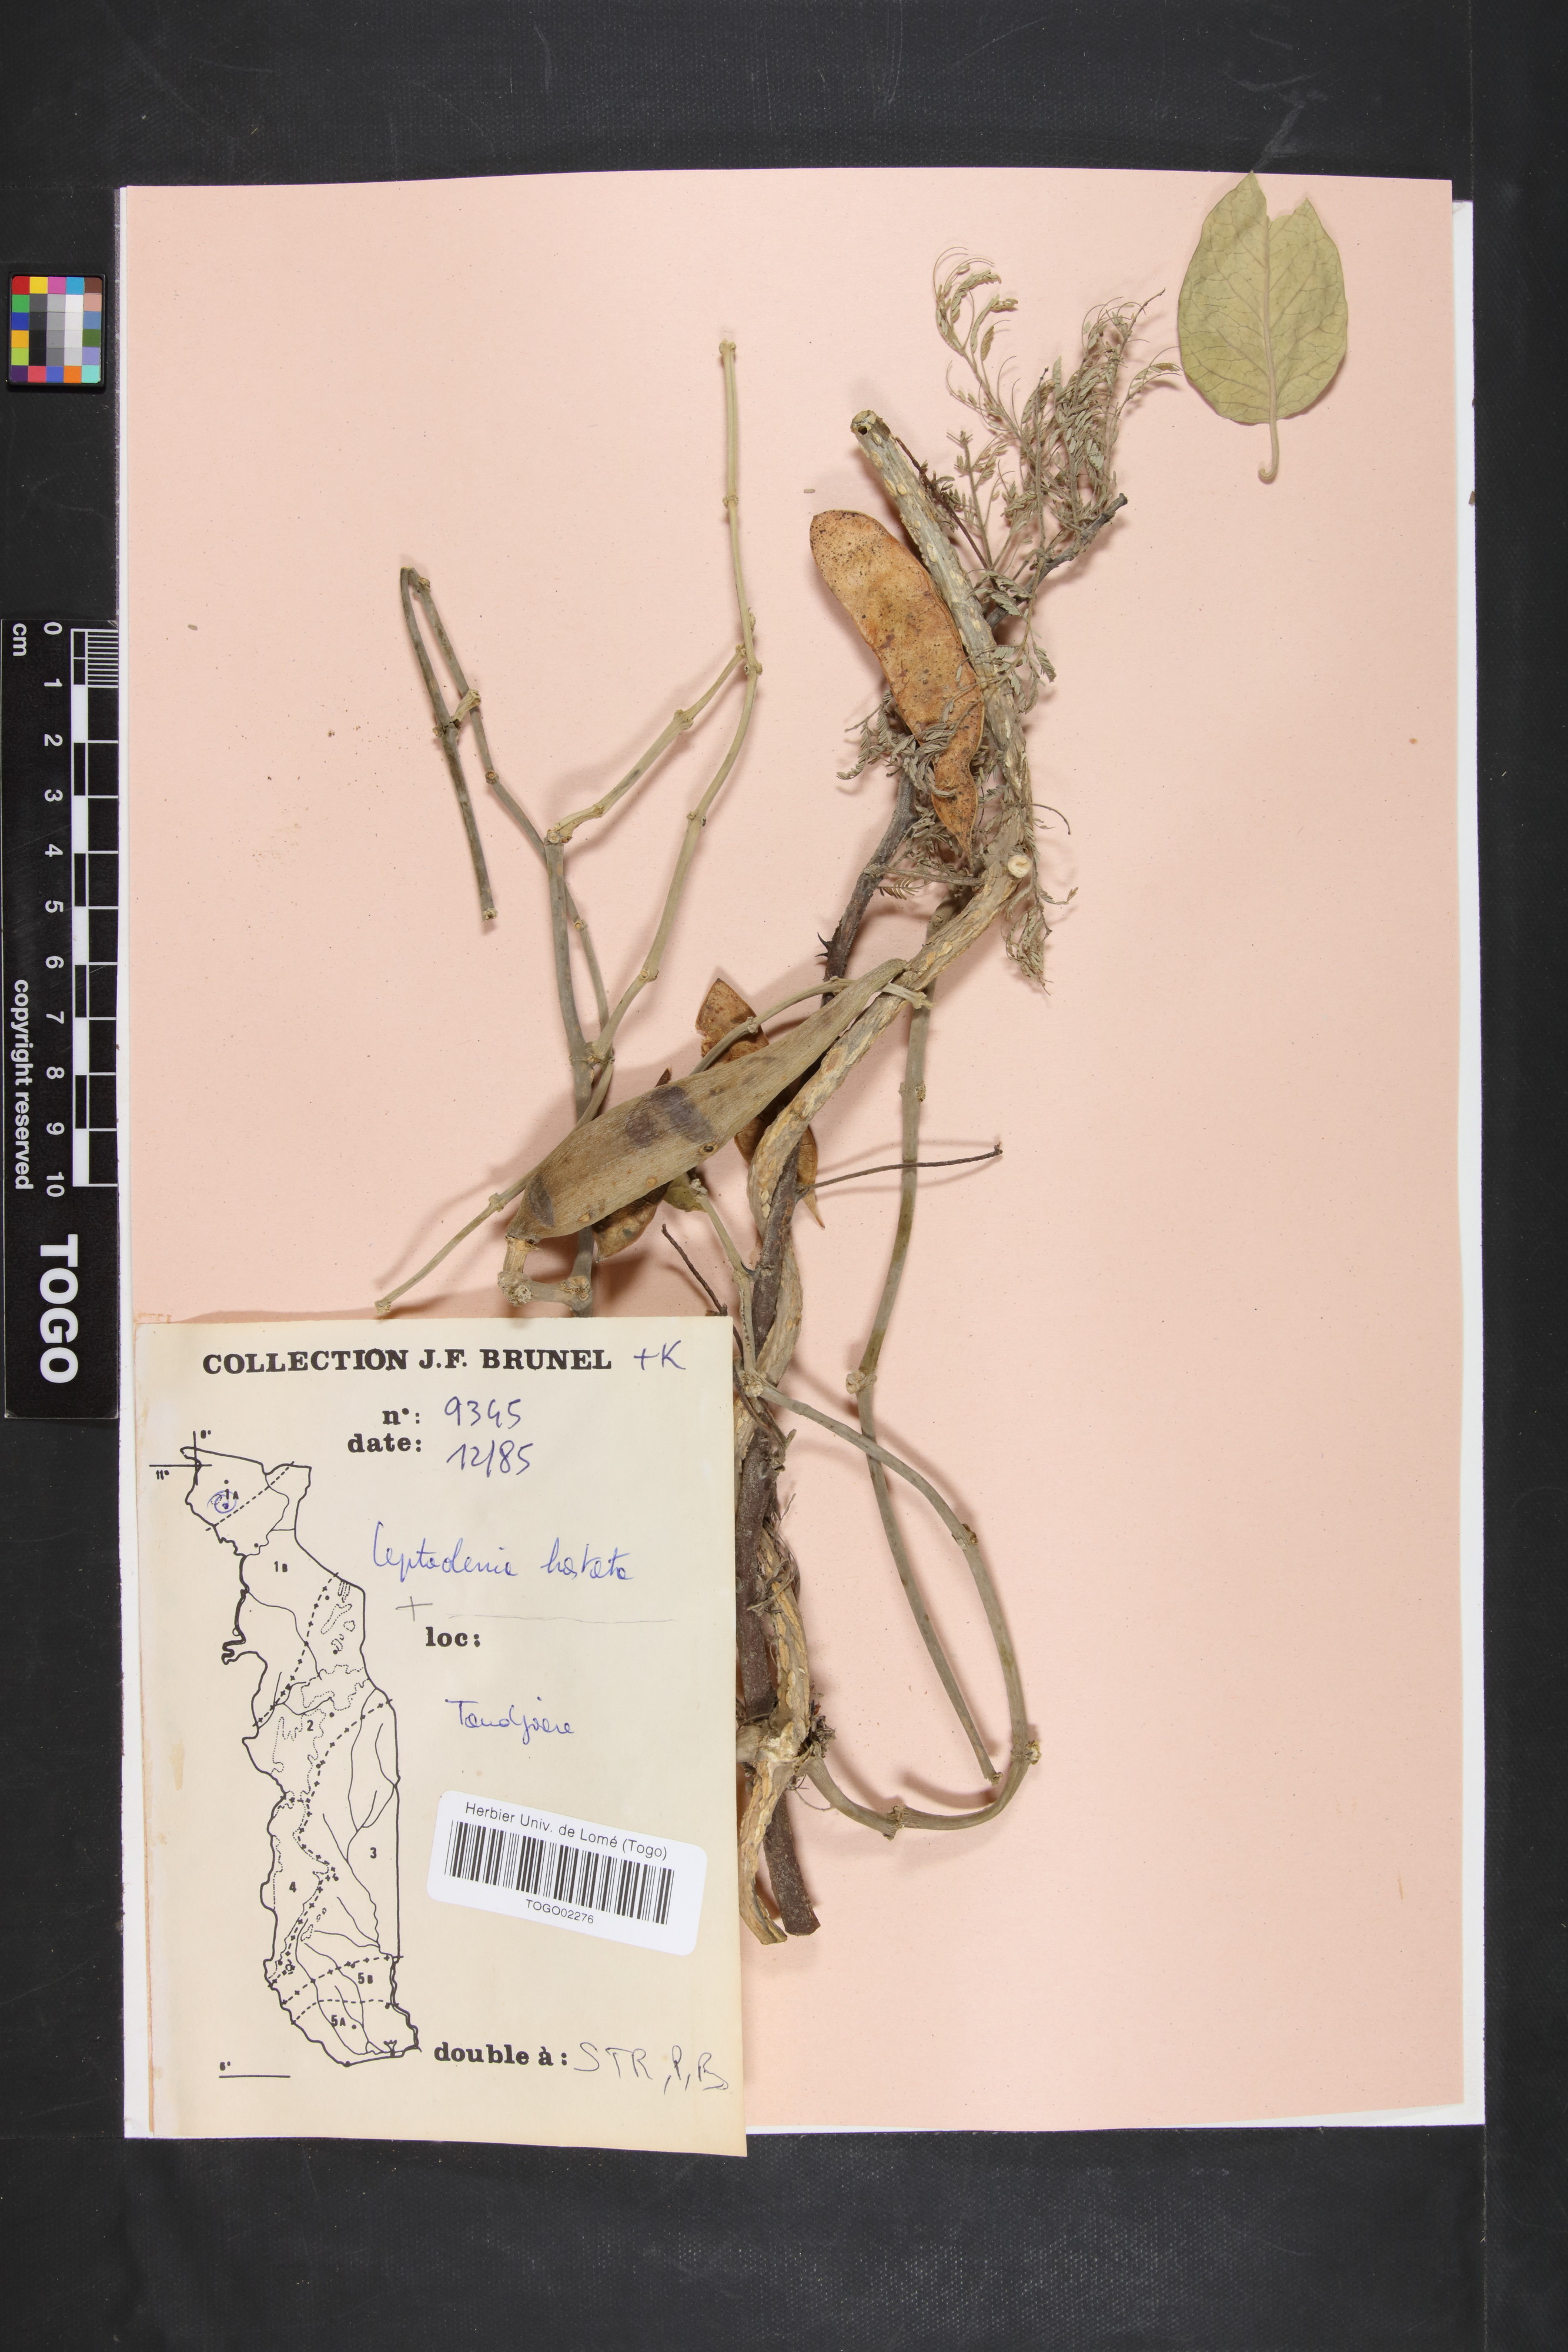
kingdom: Plantae
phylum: Tracheophyta
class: Magnoliopsida
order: Gentianales
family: Apocynaceae
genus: Leptadenia
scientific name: Leptadenia lanceolata
